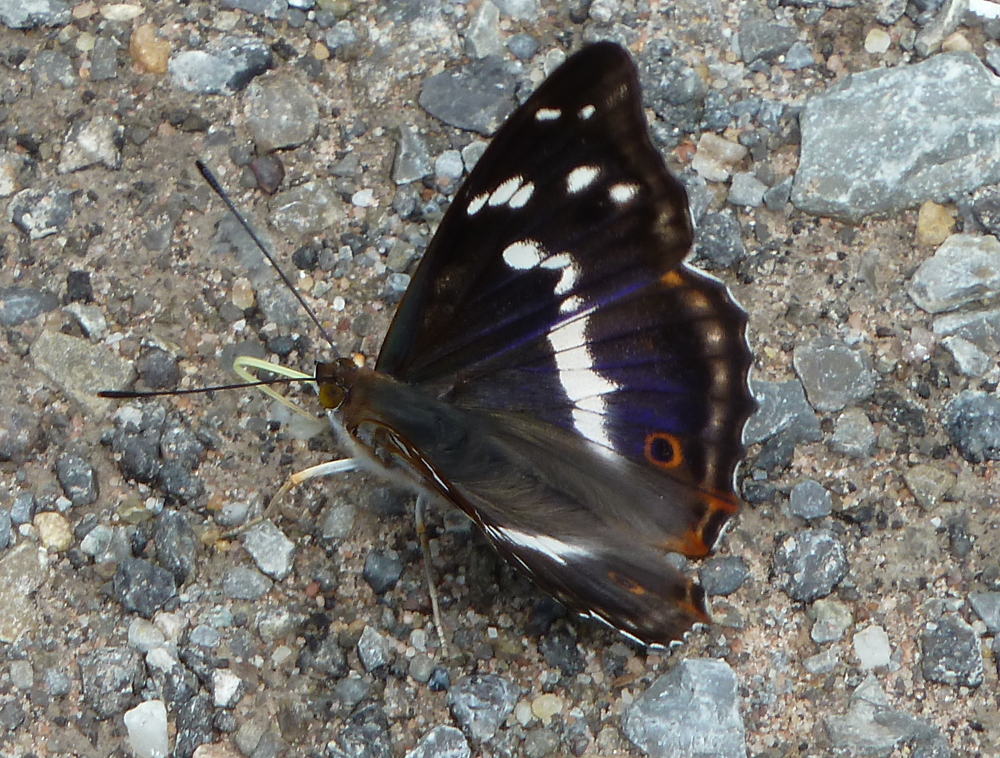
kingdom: Animalia
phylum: Arthropoda
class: Insecta
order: Lepidoptera
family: Nymphalidae
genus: Apatura
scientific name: Apatura iris
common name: Purple emperor
